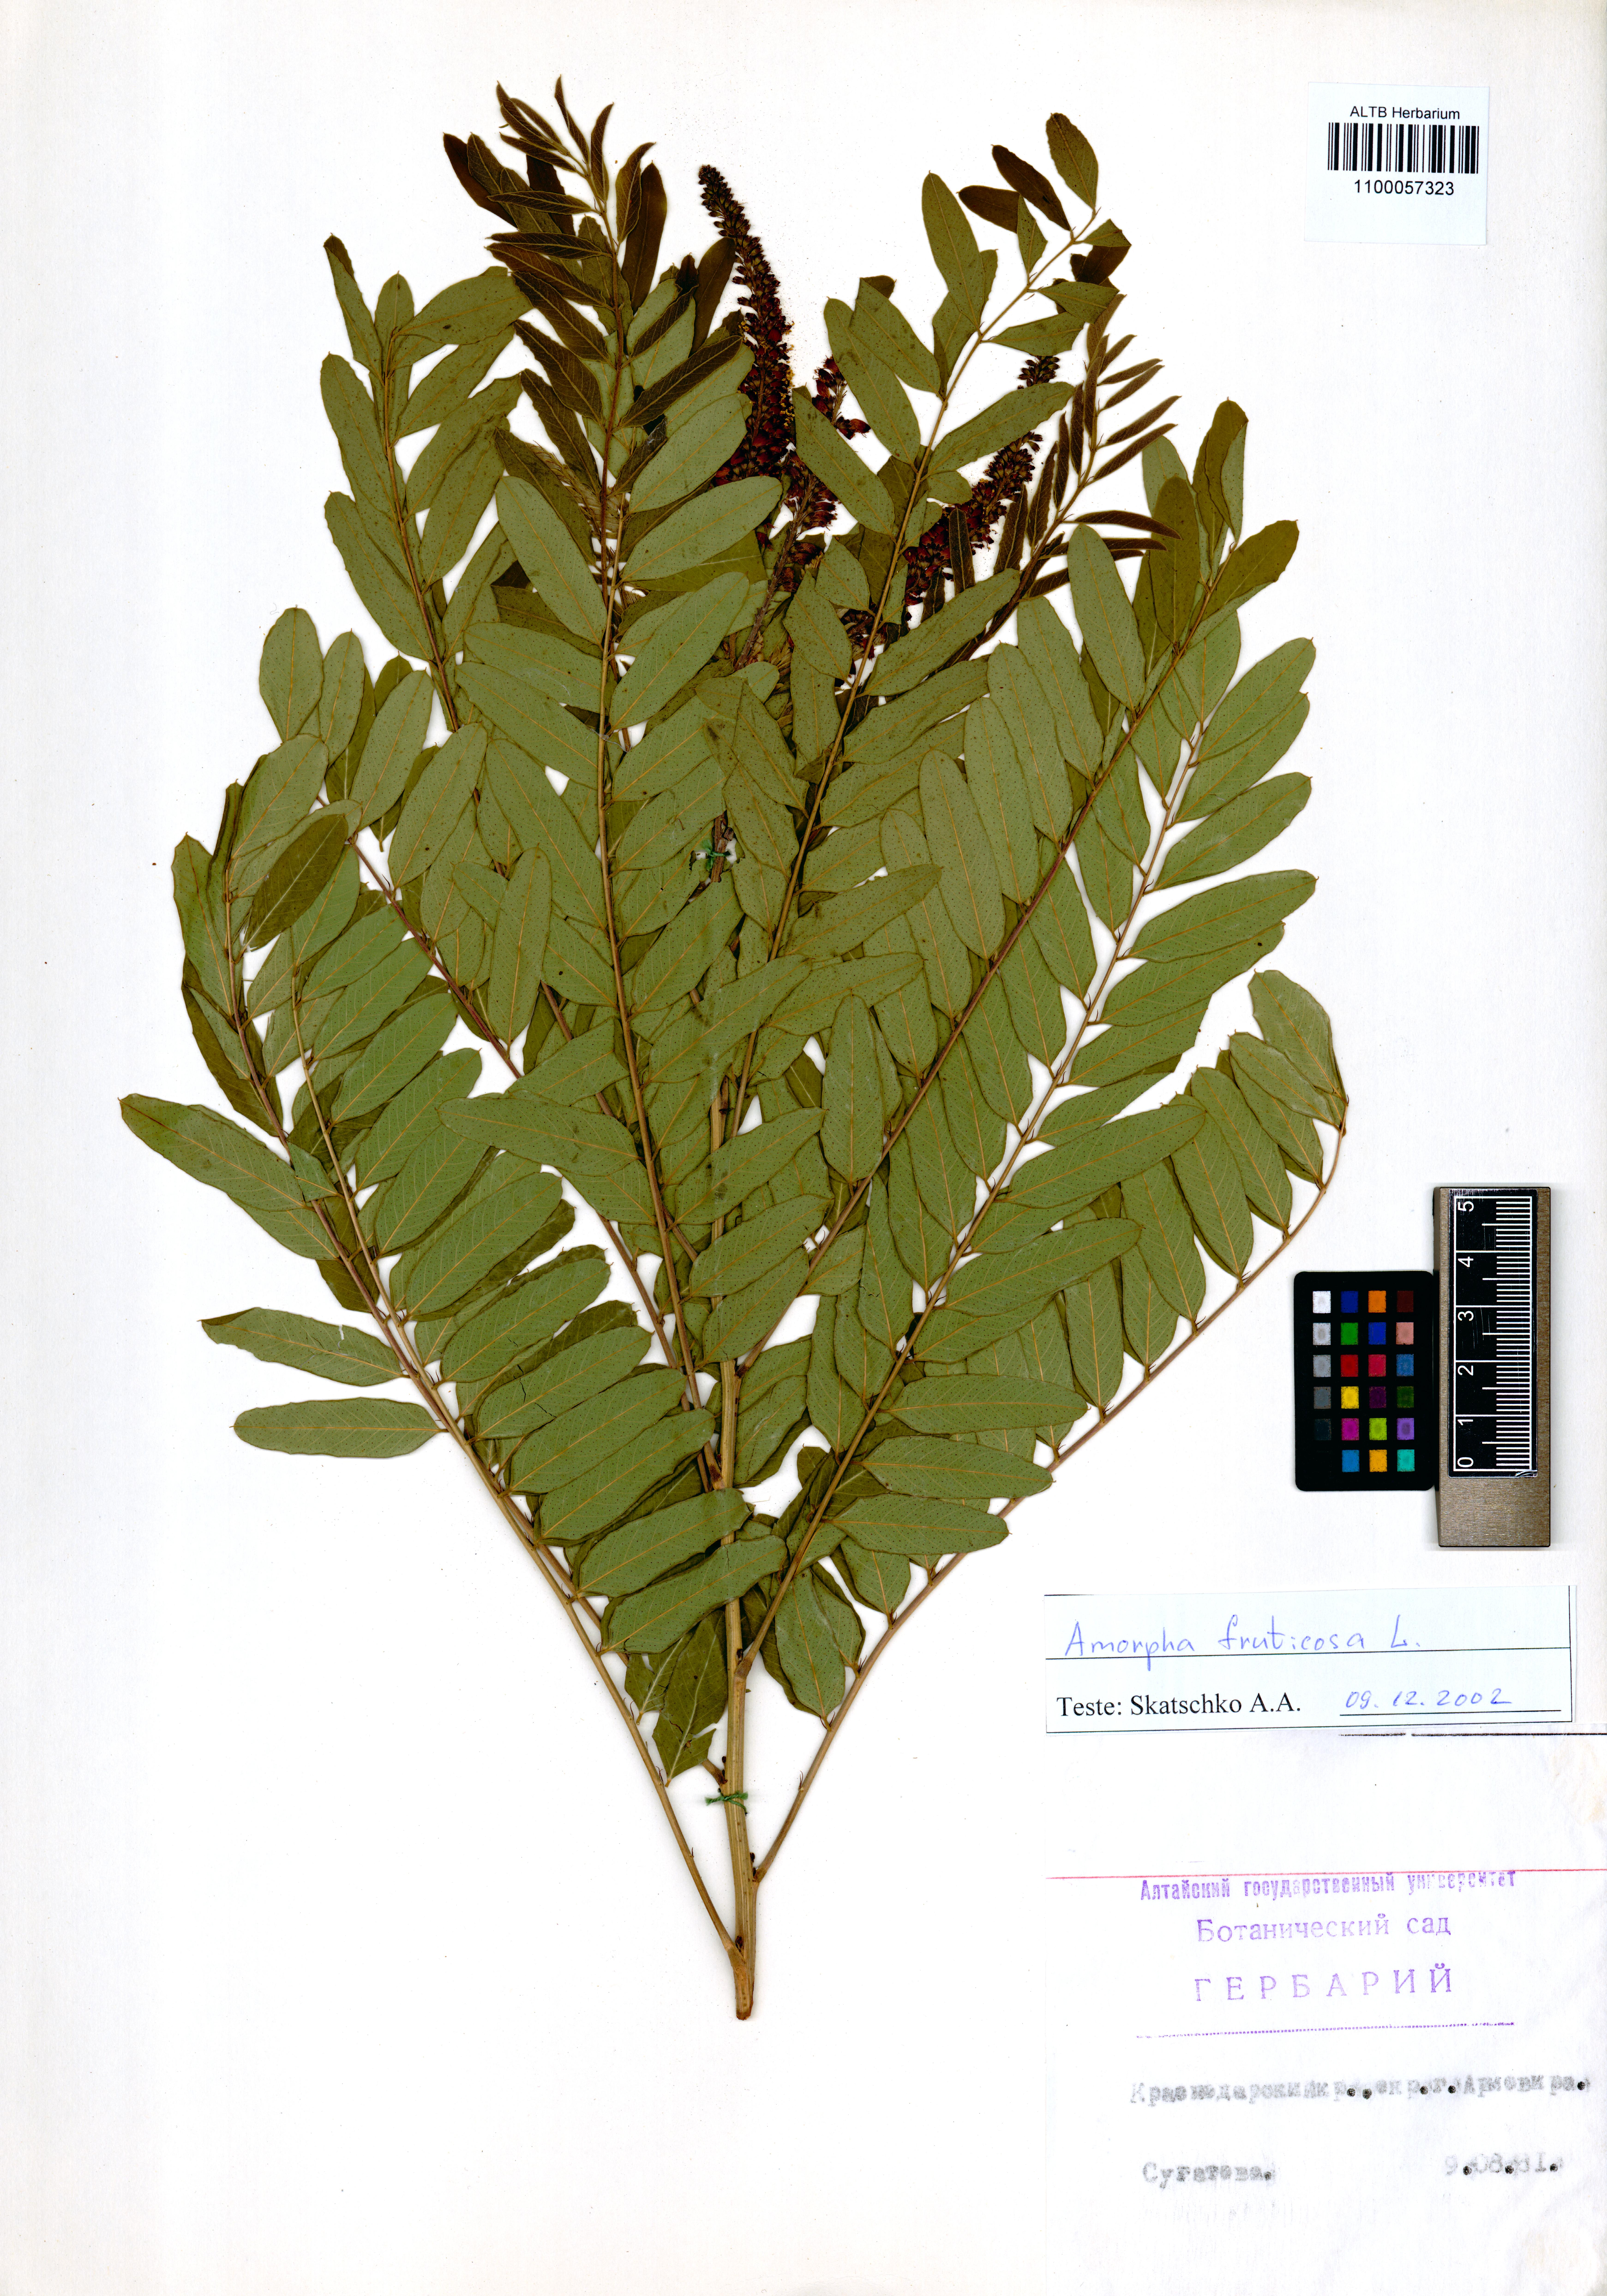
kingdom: Plantae
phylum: Tracheophyta
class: Magnoliopsida
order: Fabales
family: Fabaceae
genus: Amorpha
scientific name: Amorpha fruticosa
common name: False indigo
